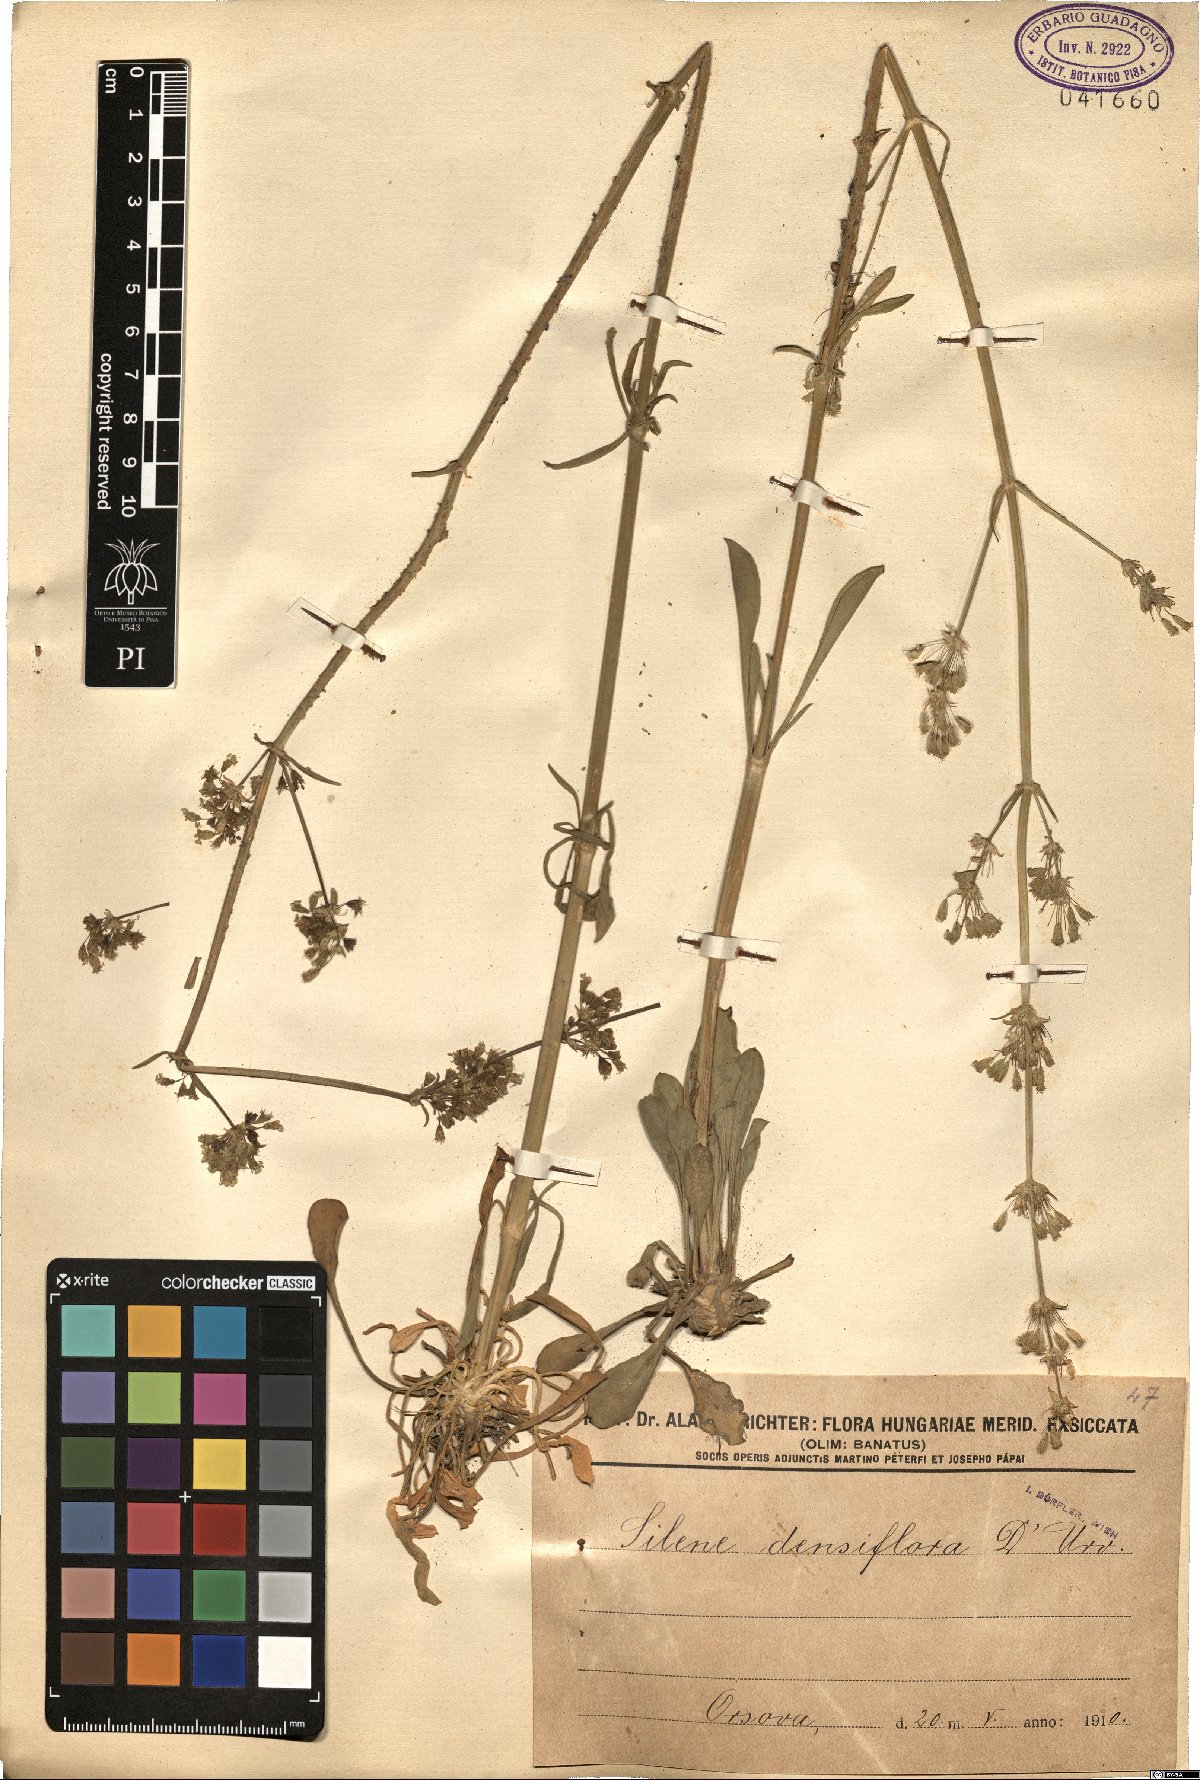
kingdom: Plantae
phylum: Tracheophyta
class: Magnoliopsida
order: Caryophyllales
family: Caryophyllaceae
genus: Silene
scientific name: Silene densiflora
